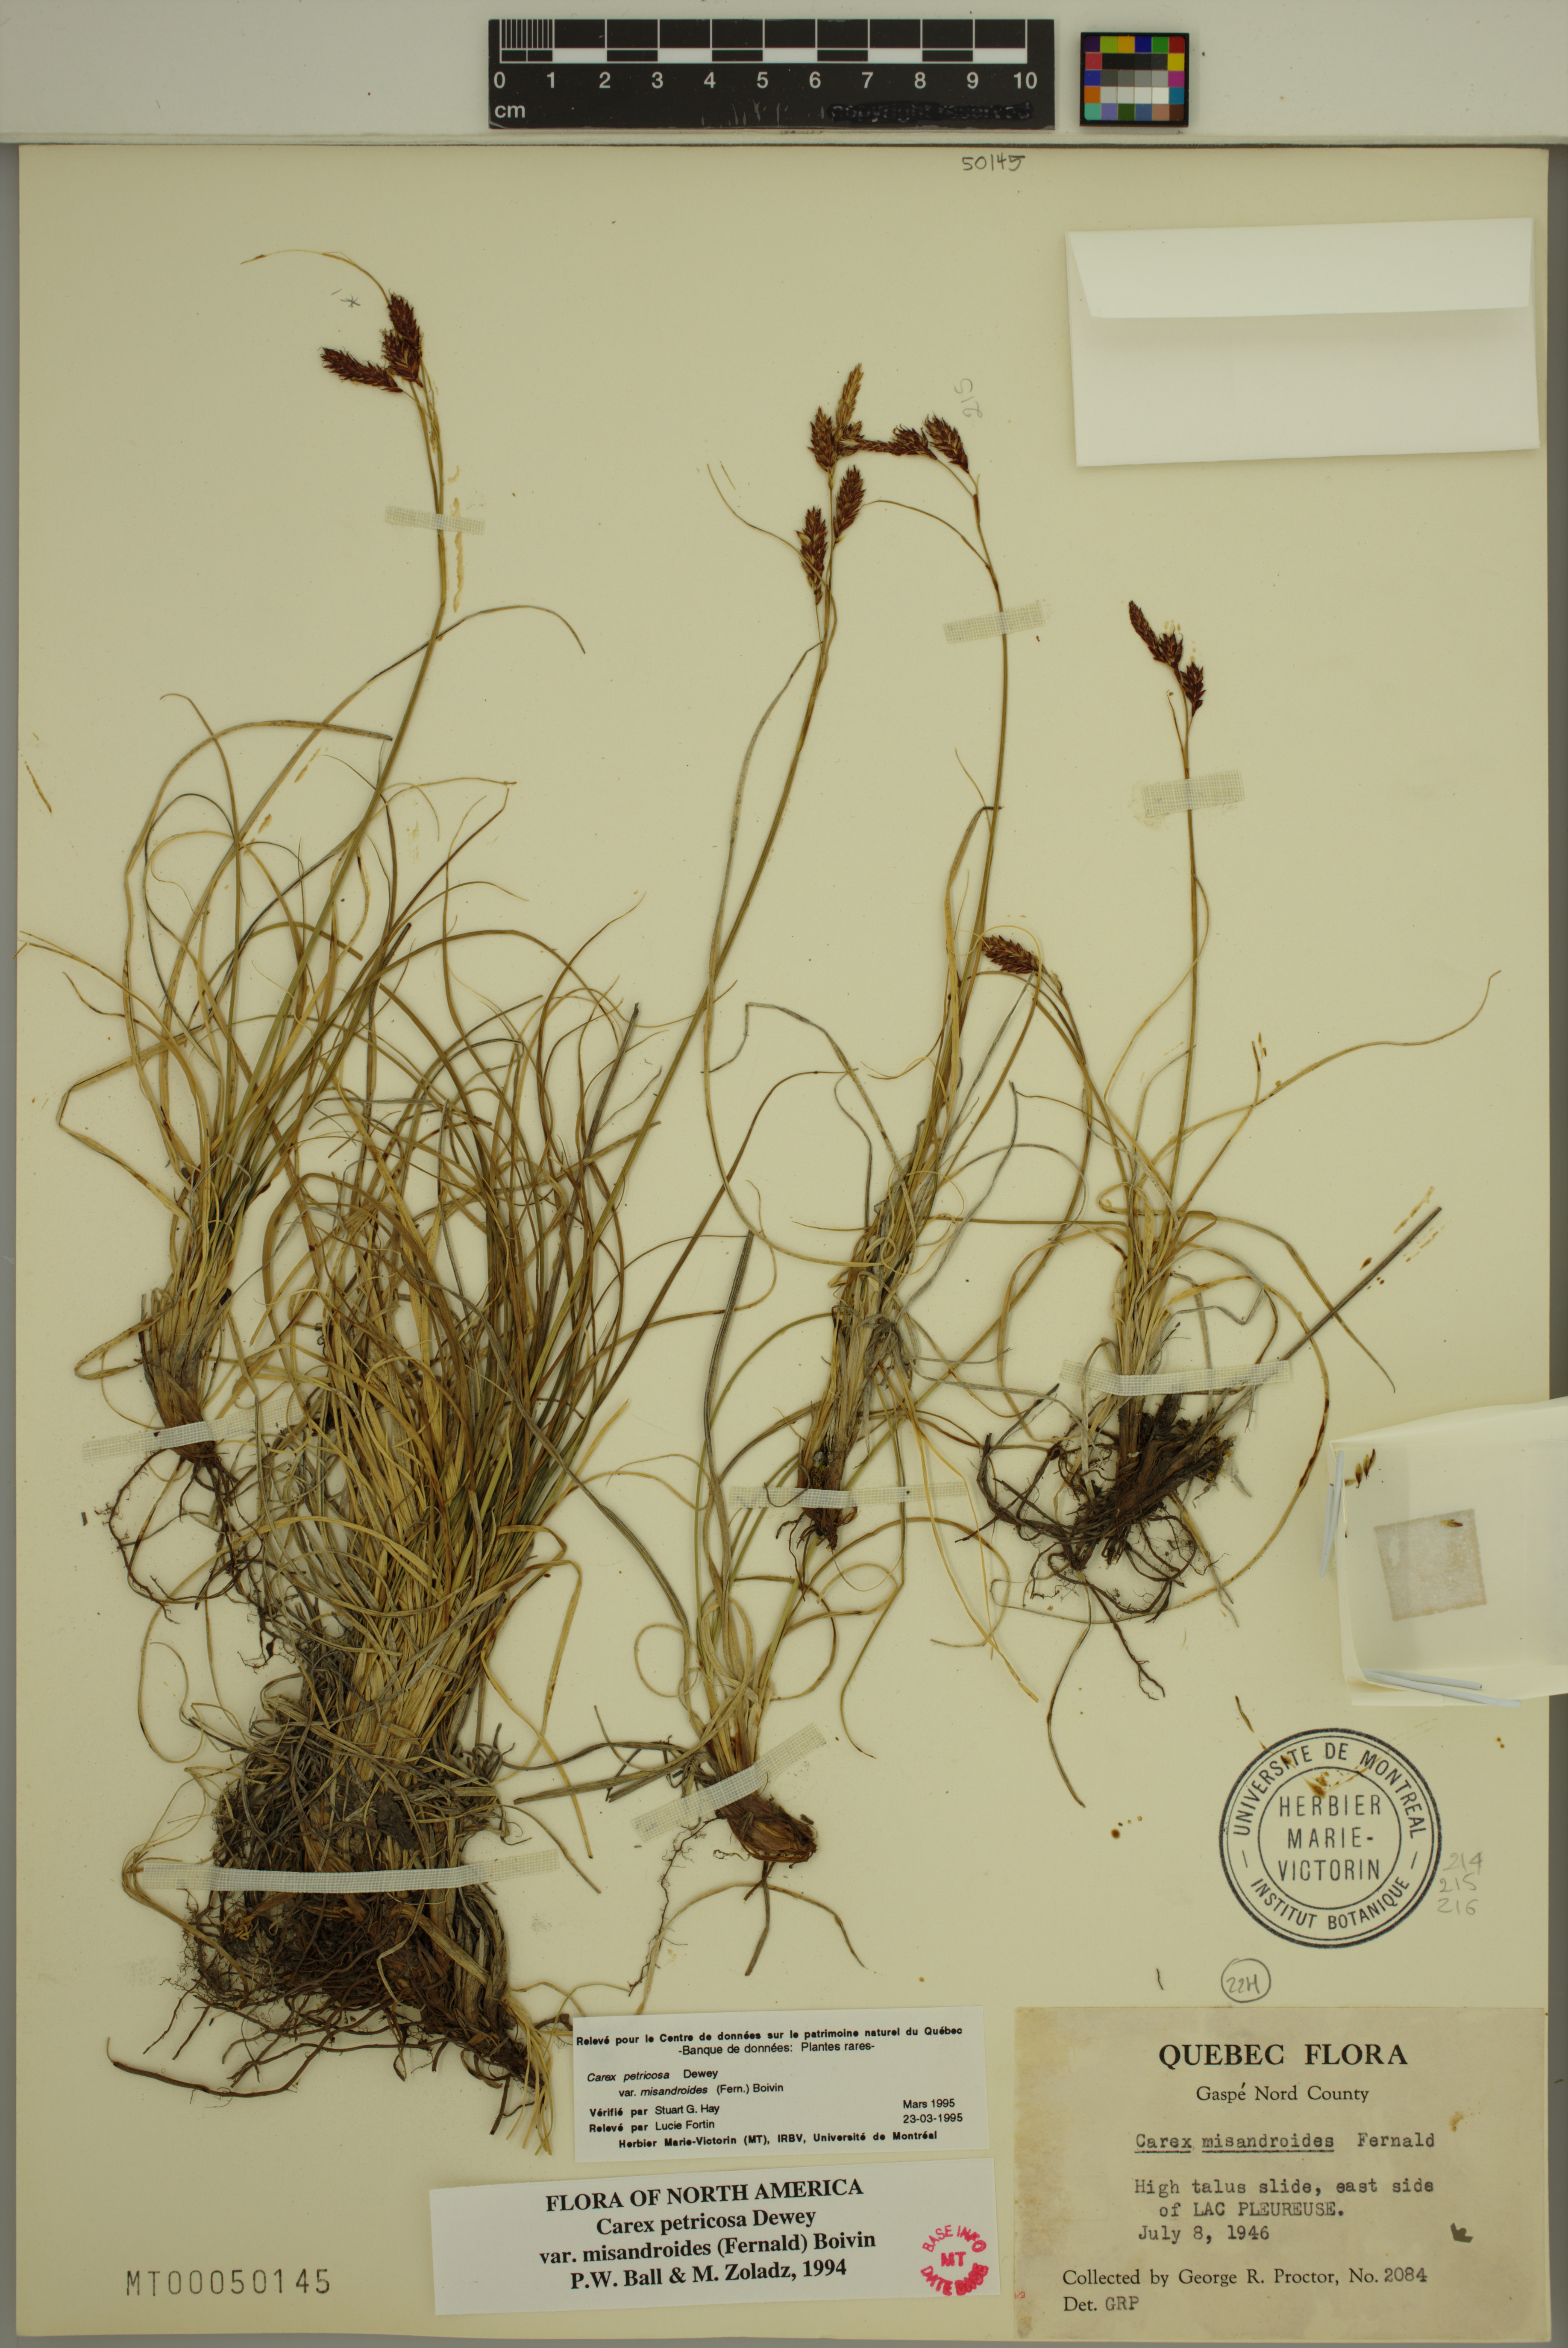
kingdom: Plantae
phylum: Tracheophyta
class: Liliopsida
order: Poales
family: Cyperaceae
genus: Carex
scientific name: Carex petricosa
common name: Rock sedge
